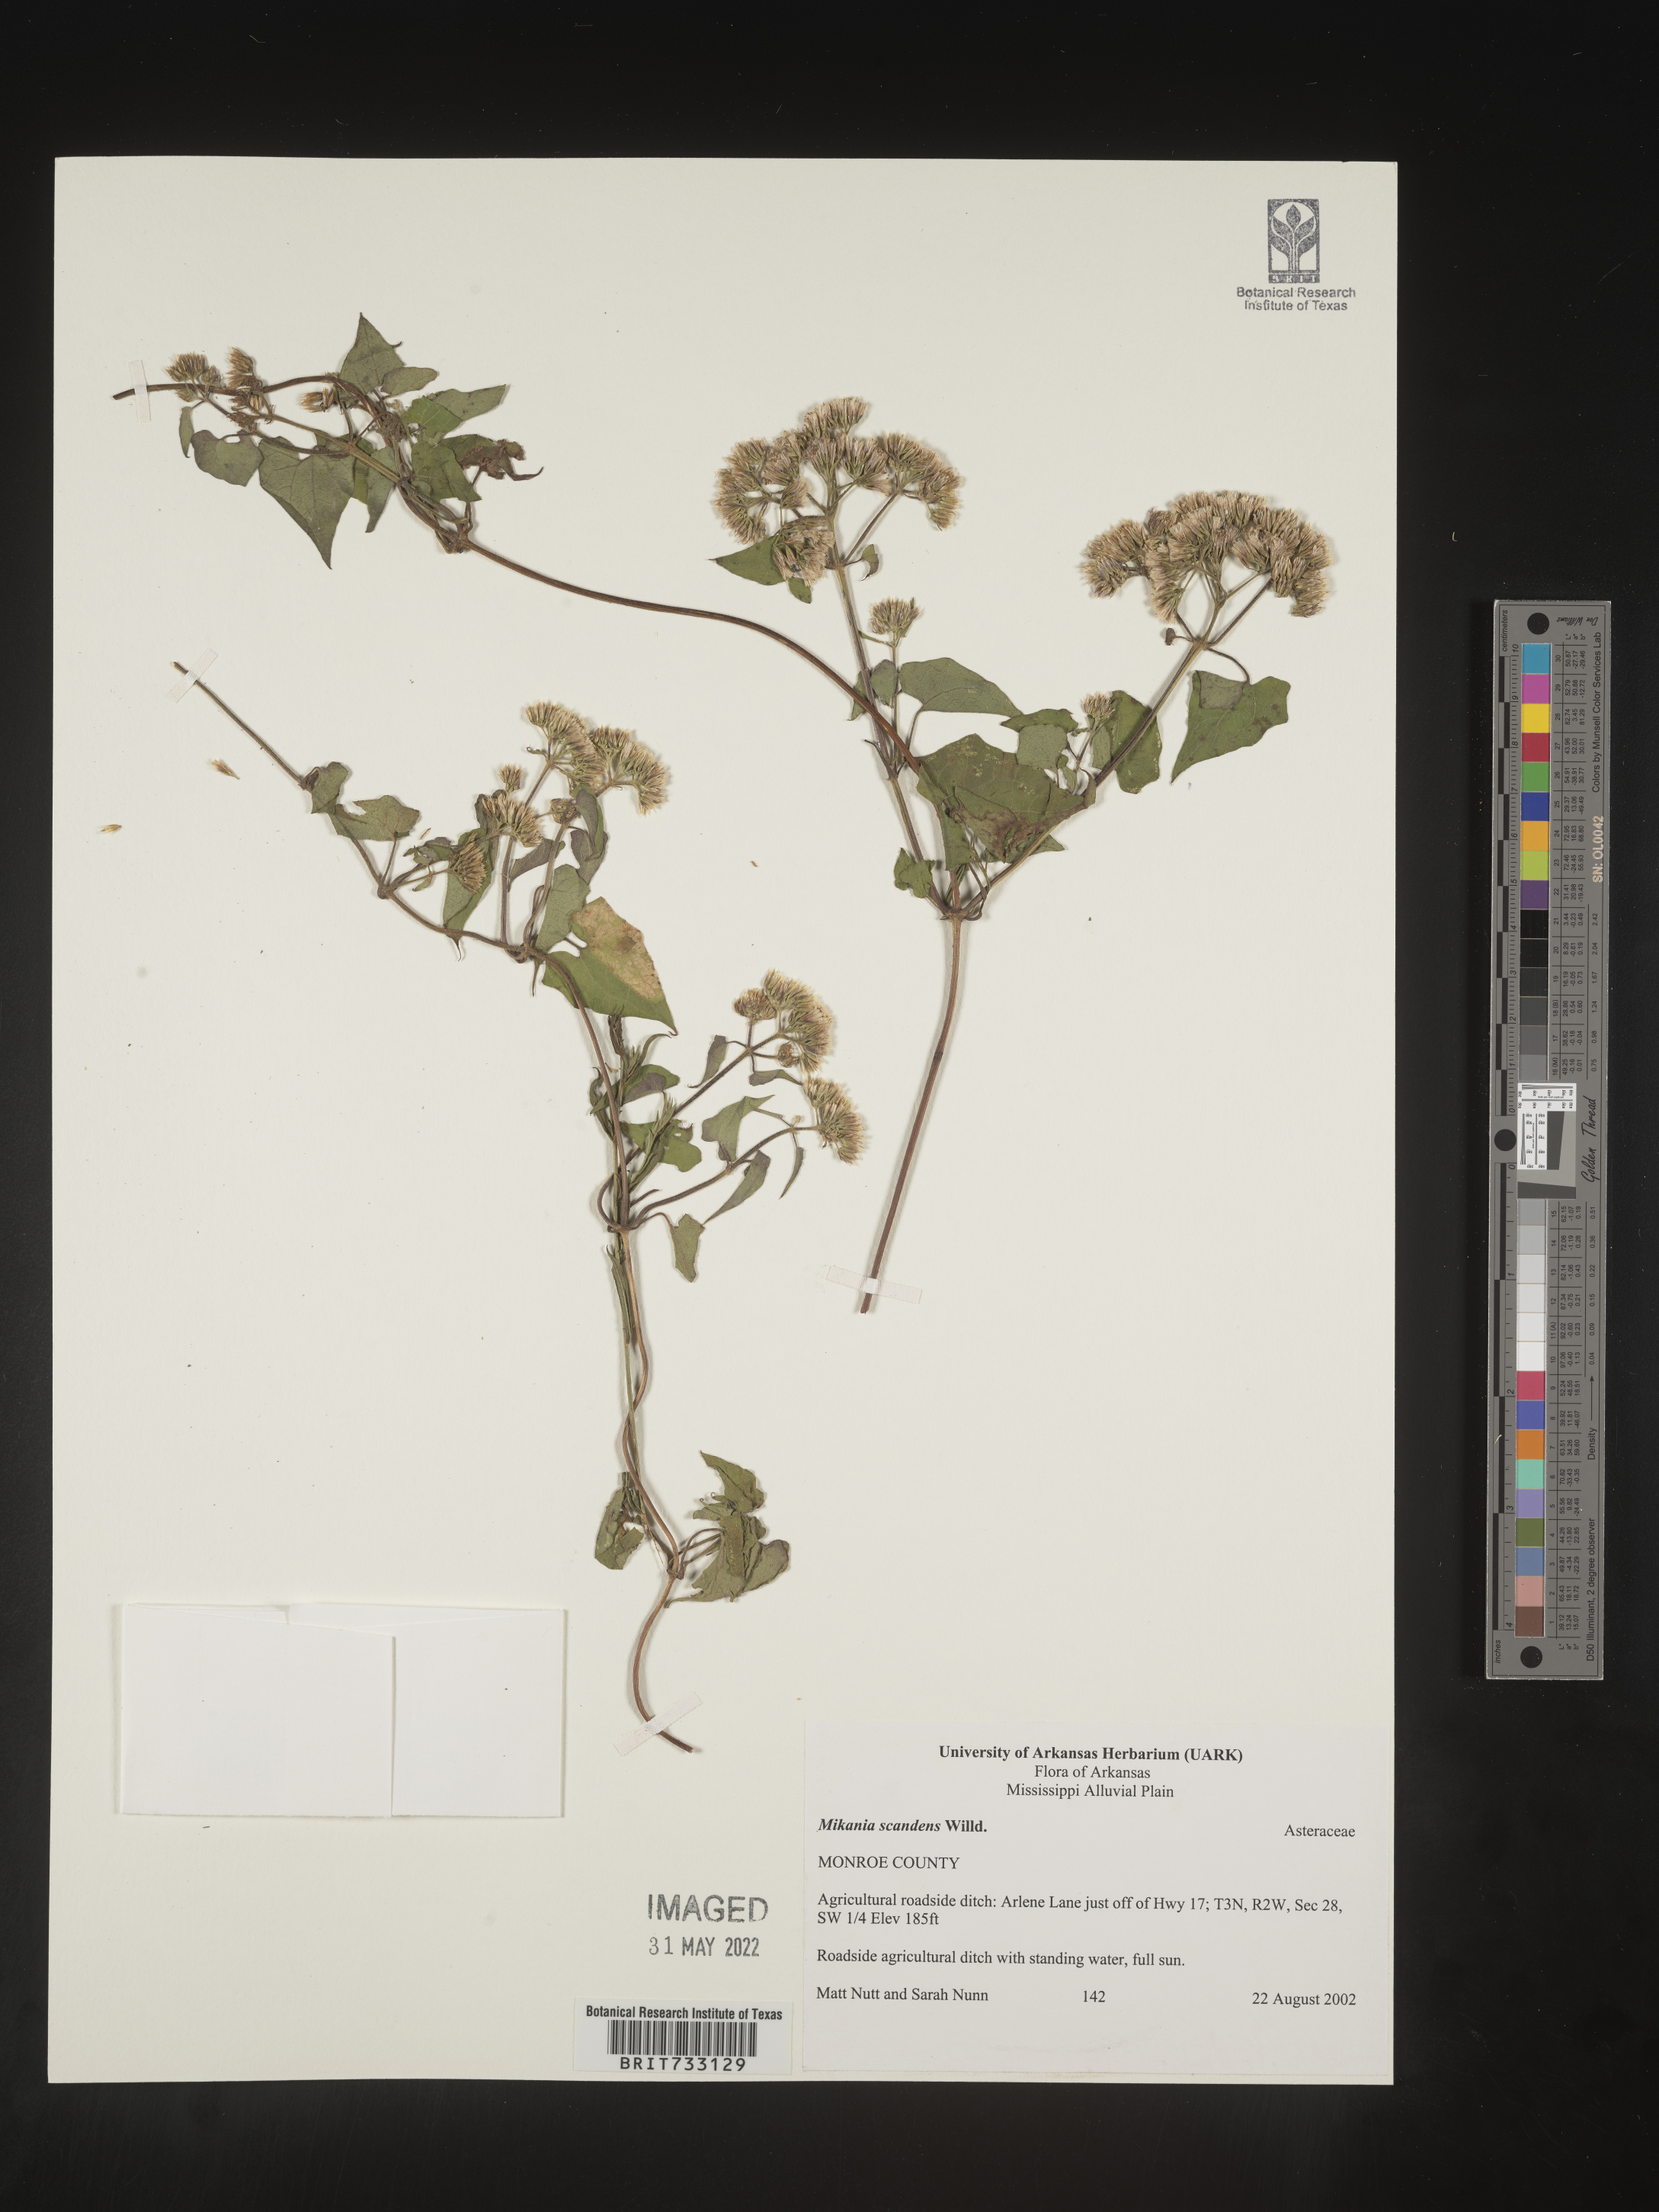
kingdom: Plantae
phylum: Tracheophyta
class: Magnoliopsida
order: Asterales
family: Asteraceae
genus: Mikania
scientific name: Mikania scandens
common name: Climbing hempvine
